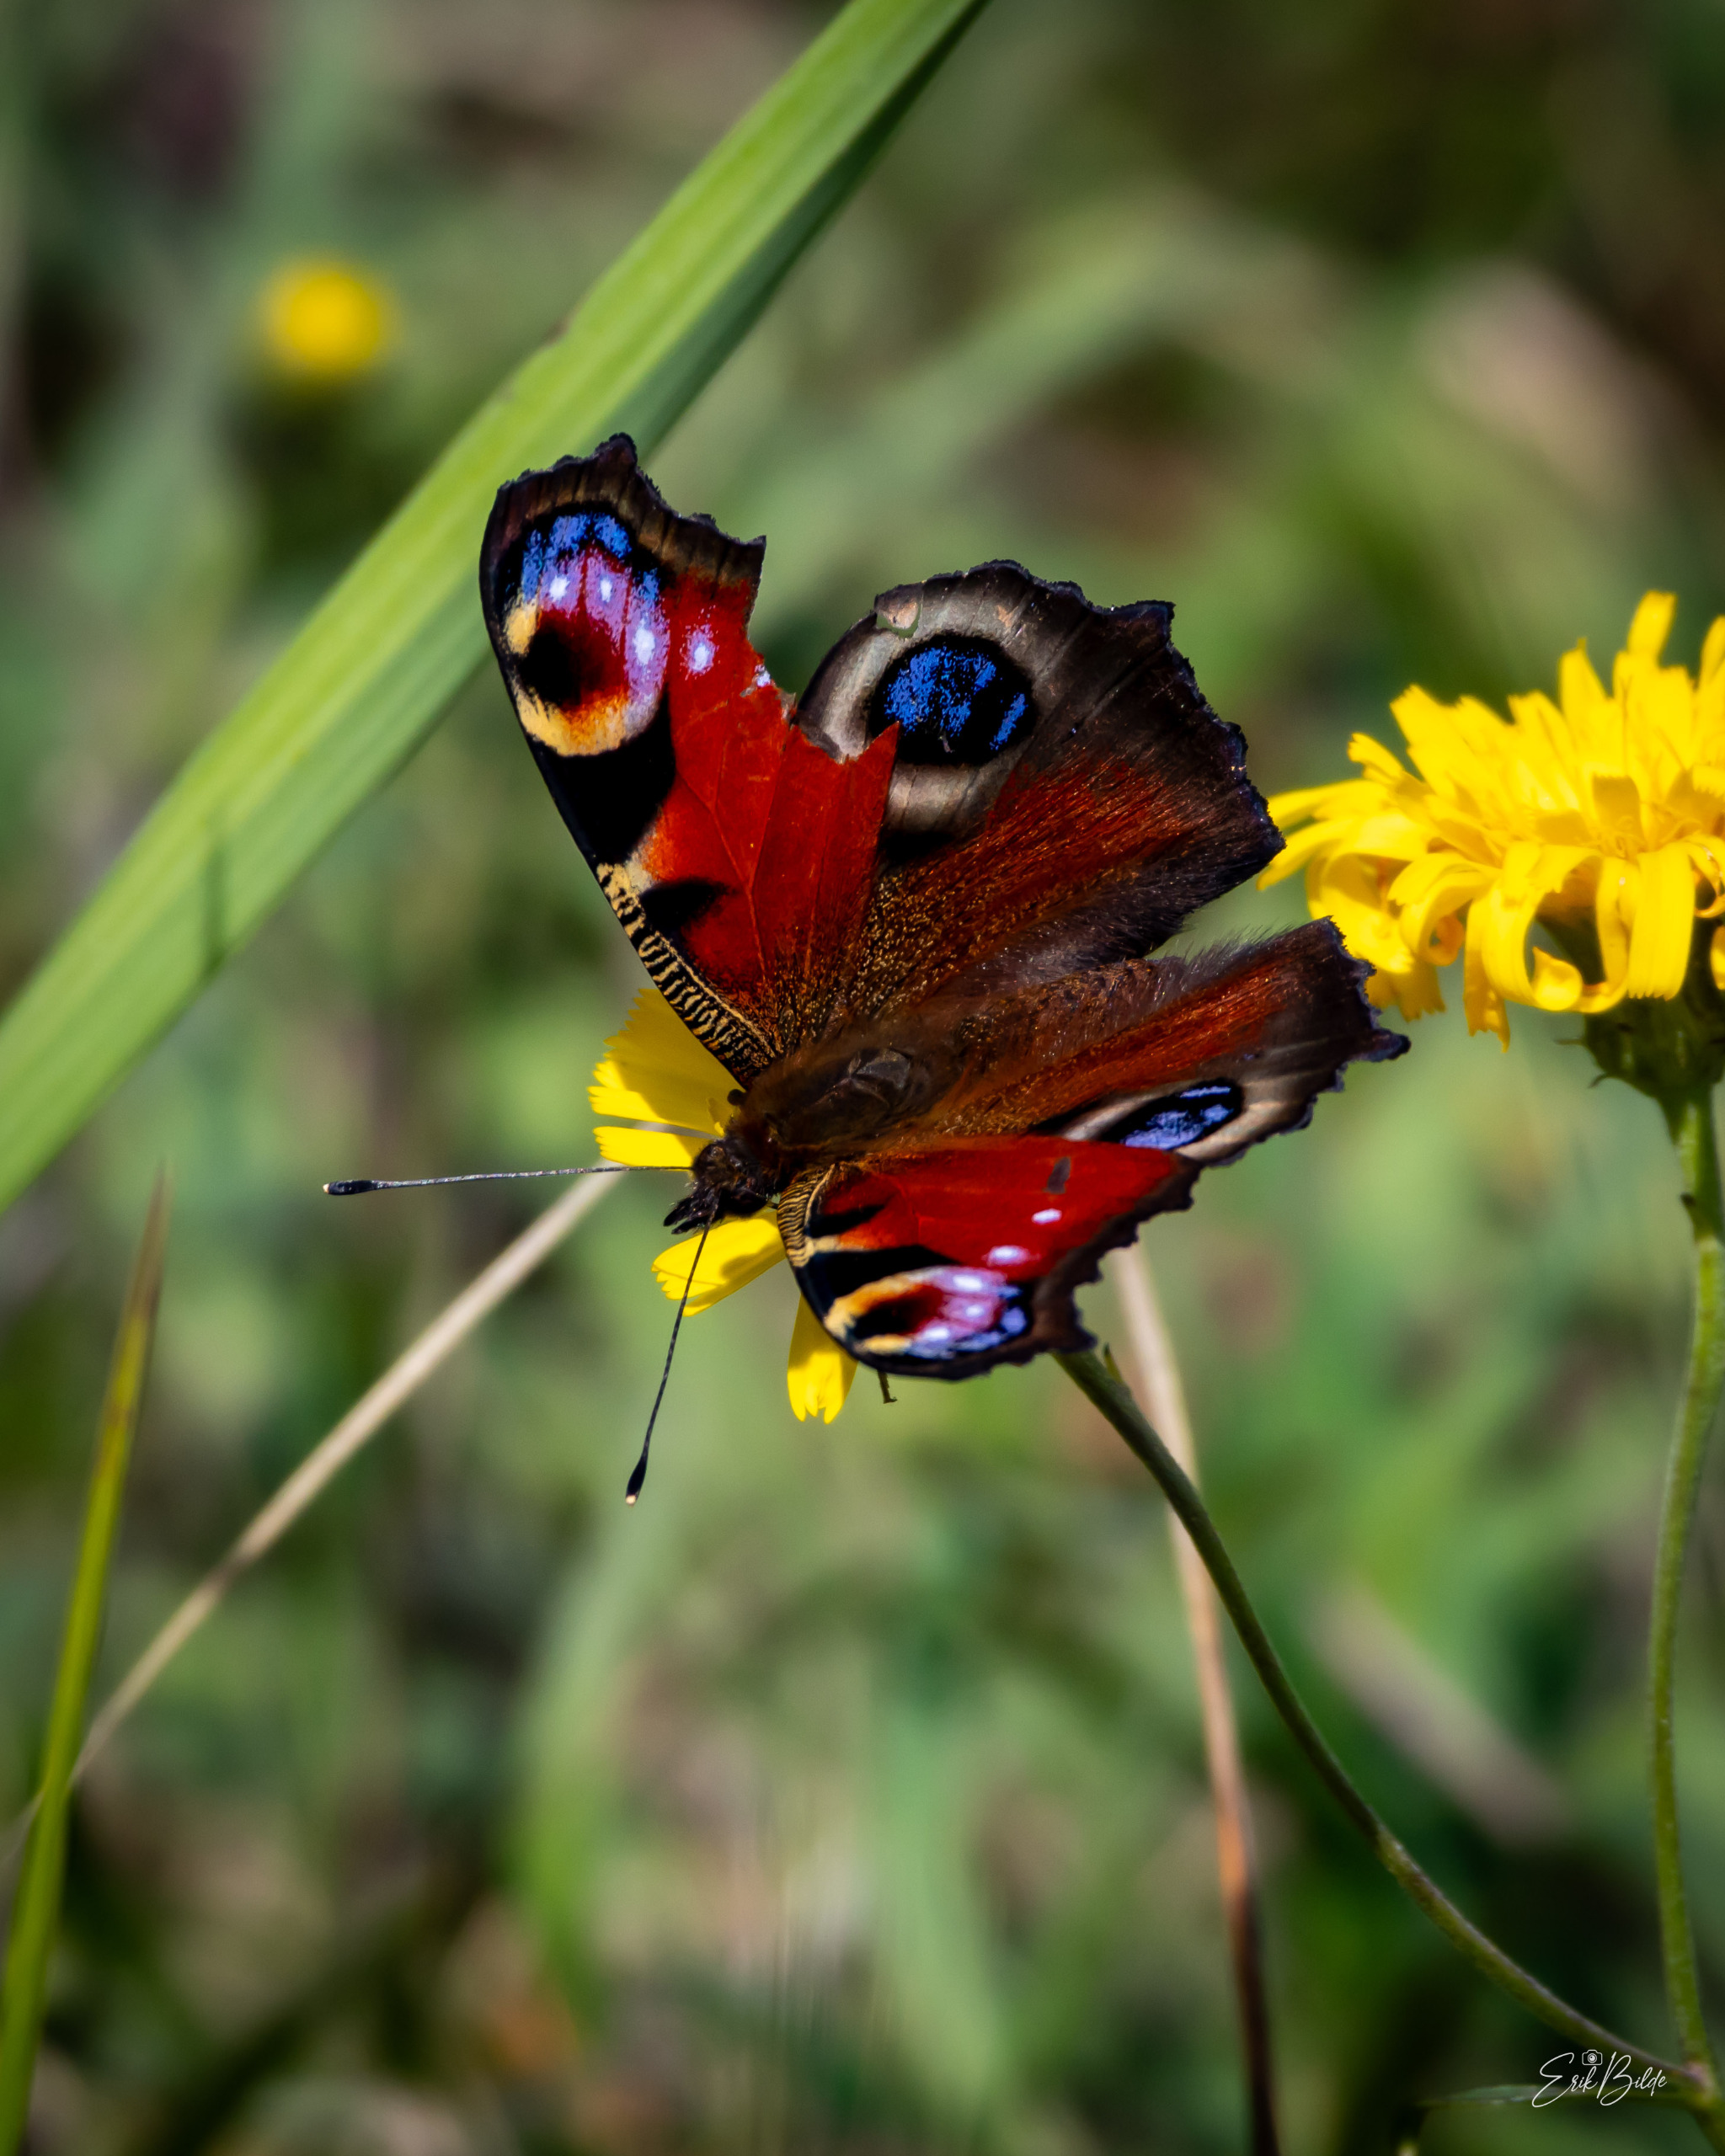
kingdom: Animalia
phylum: Arthropoda
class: Insecta
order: Lepidoptera
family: Nymphalidae
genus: Aglais
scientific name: Aglais io
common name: Dagpåfugleøje
